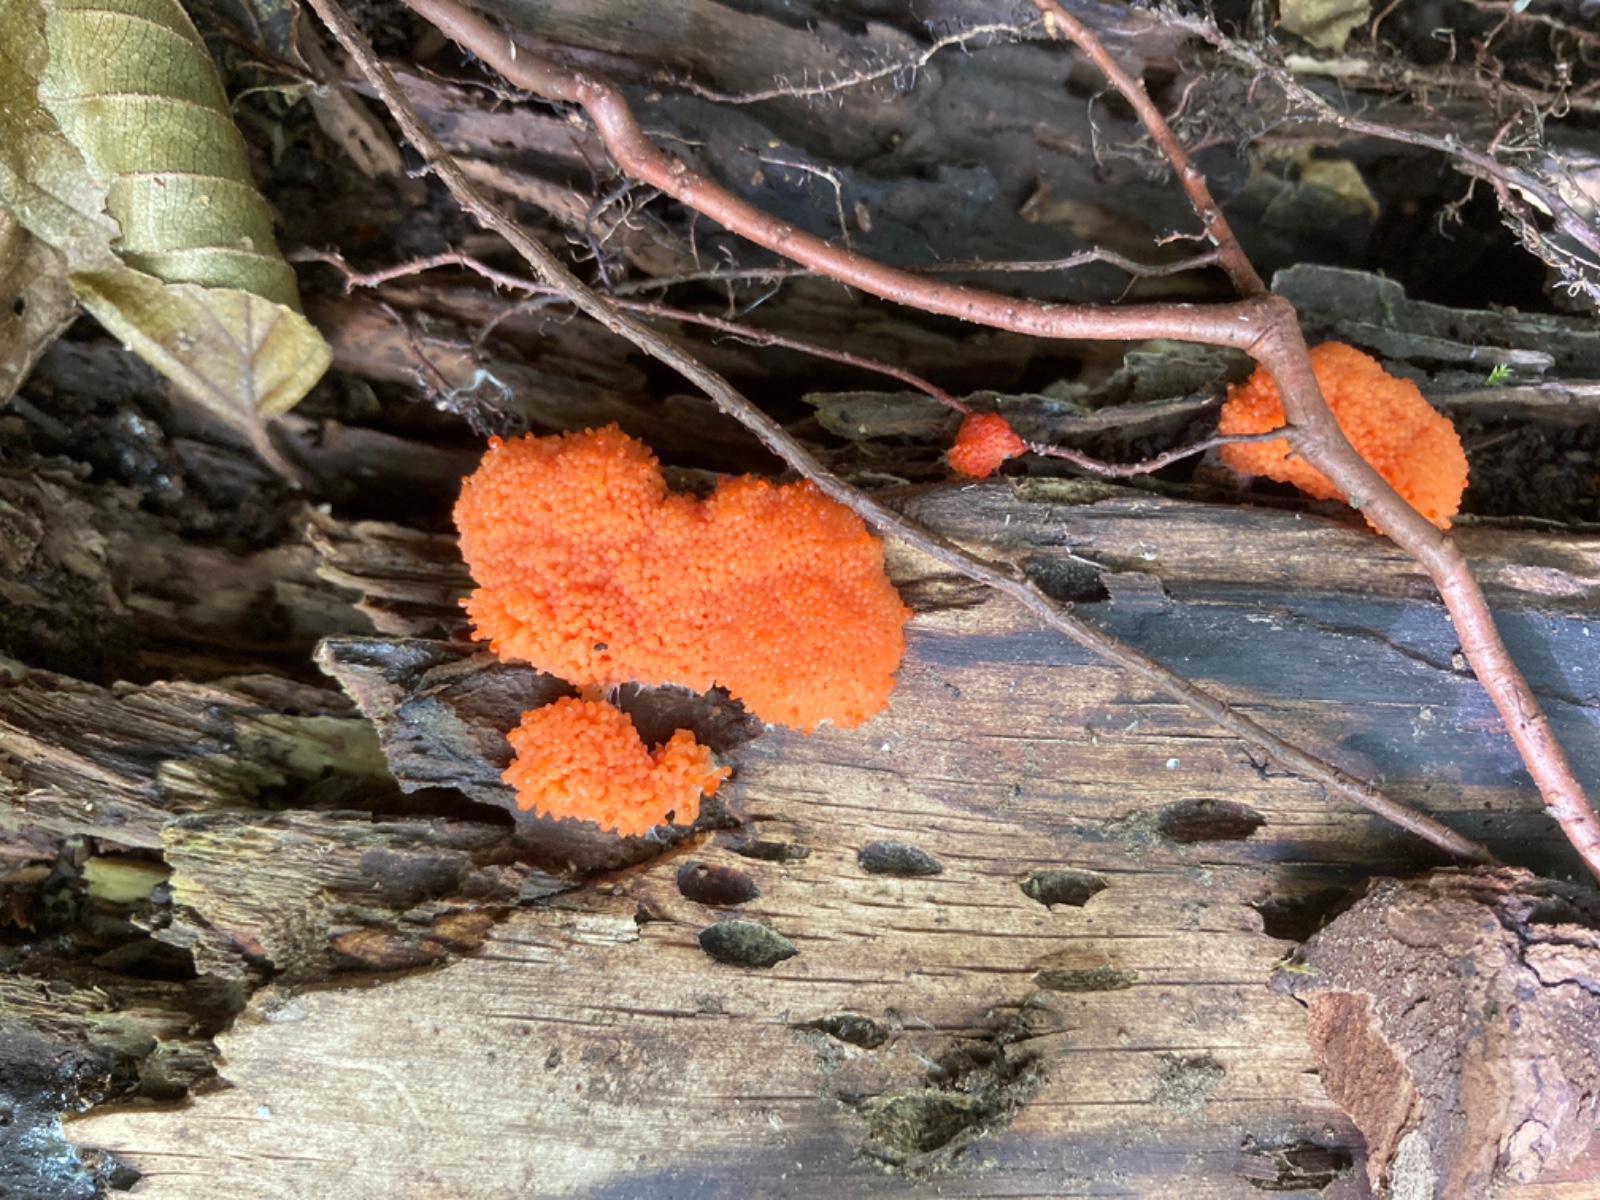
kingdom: Protozoa
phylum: Mycetozoa
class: Myxomycetes
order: Cribrariales
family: Tubiferaceae
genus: Tubifera
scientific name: Tubifera ferruginosa
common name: kanel-støvrør
